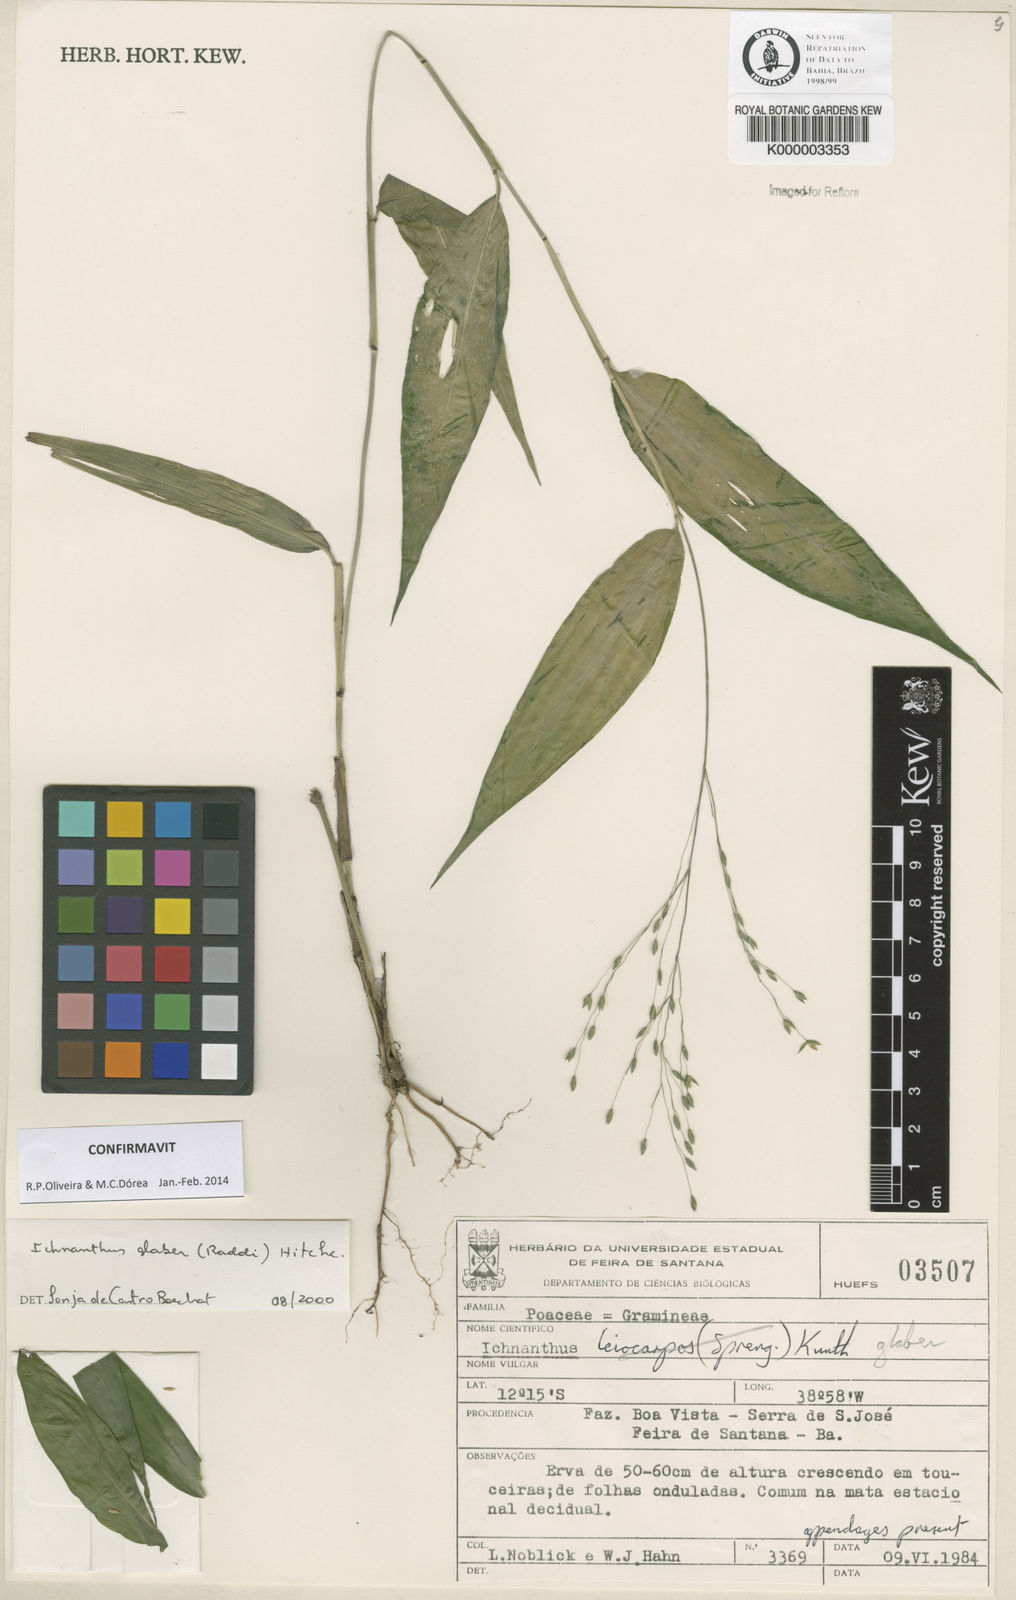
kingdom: Plantae
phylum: Tracheophyta
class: Liliopsida
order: Poales
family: Poaceae
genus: Ichnanthus
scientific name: Ichnanthus glaber
